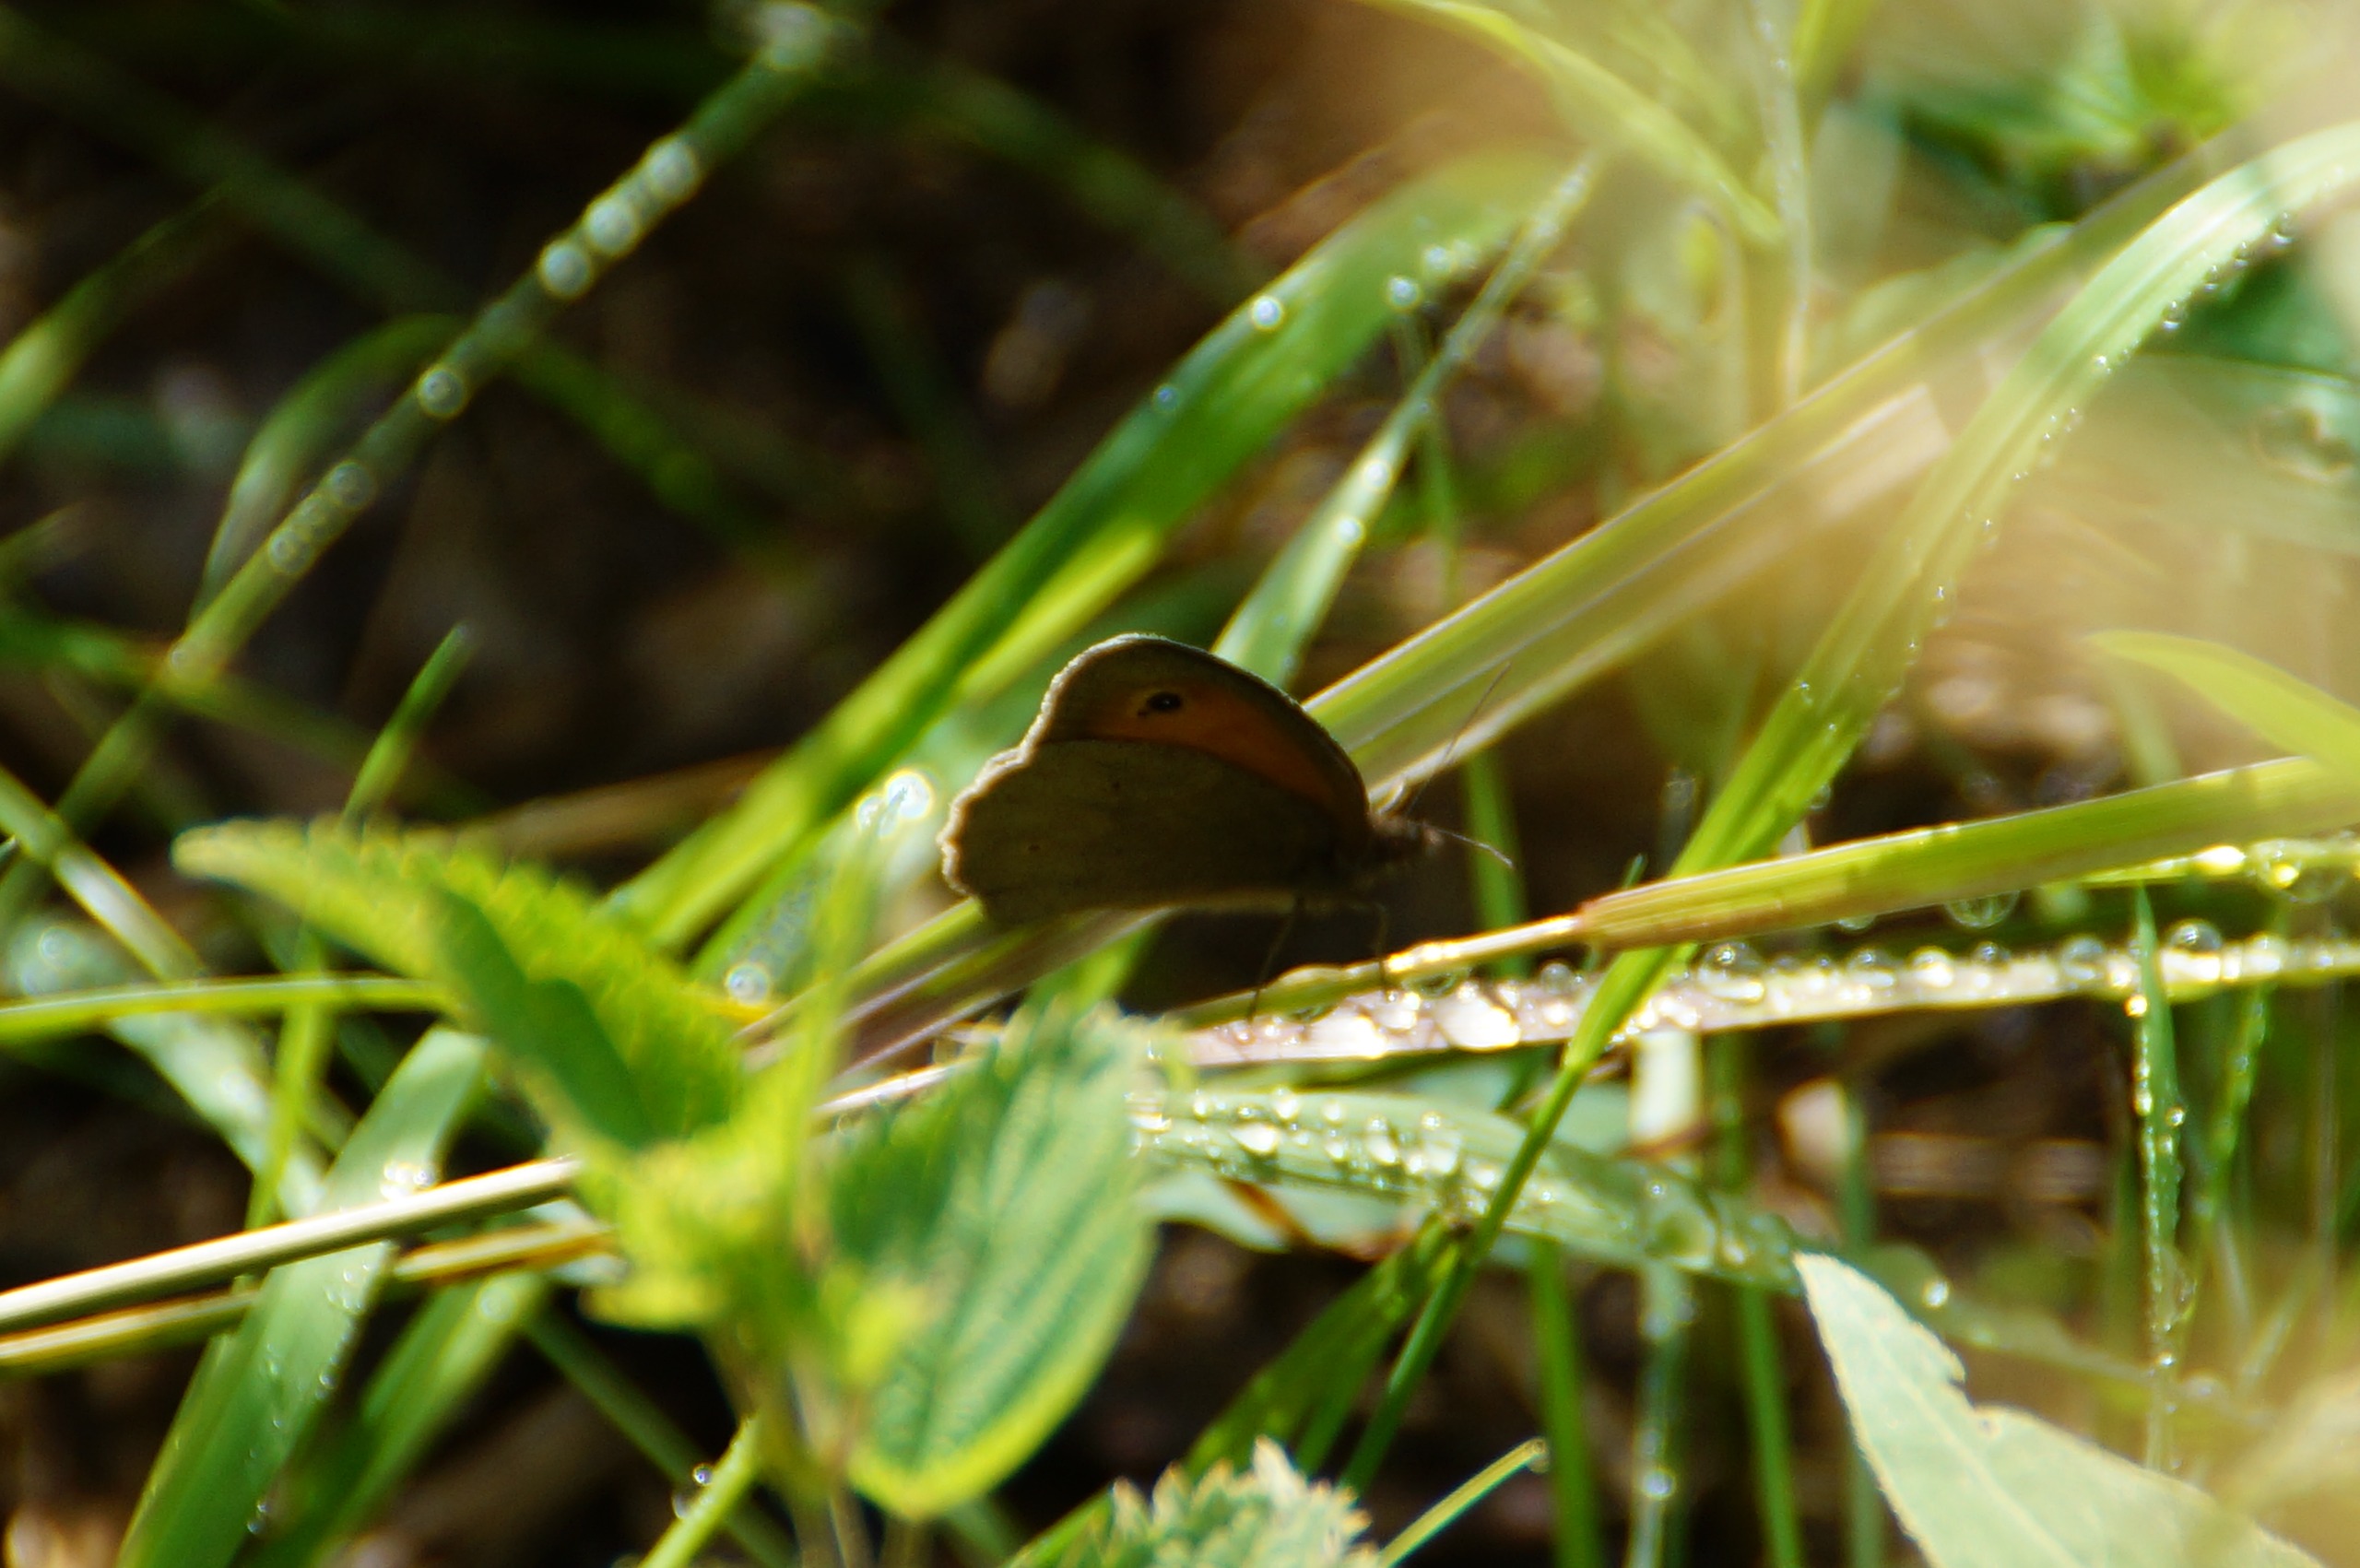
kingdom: Animalia
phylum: Arthropoda
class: Insecta
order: Lepidoptera
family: Nymphalidae
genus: Maniola
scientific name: Maniola jurtina
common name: Græsrandøje
